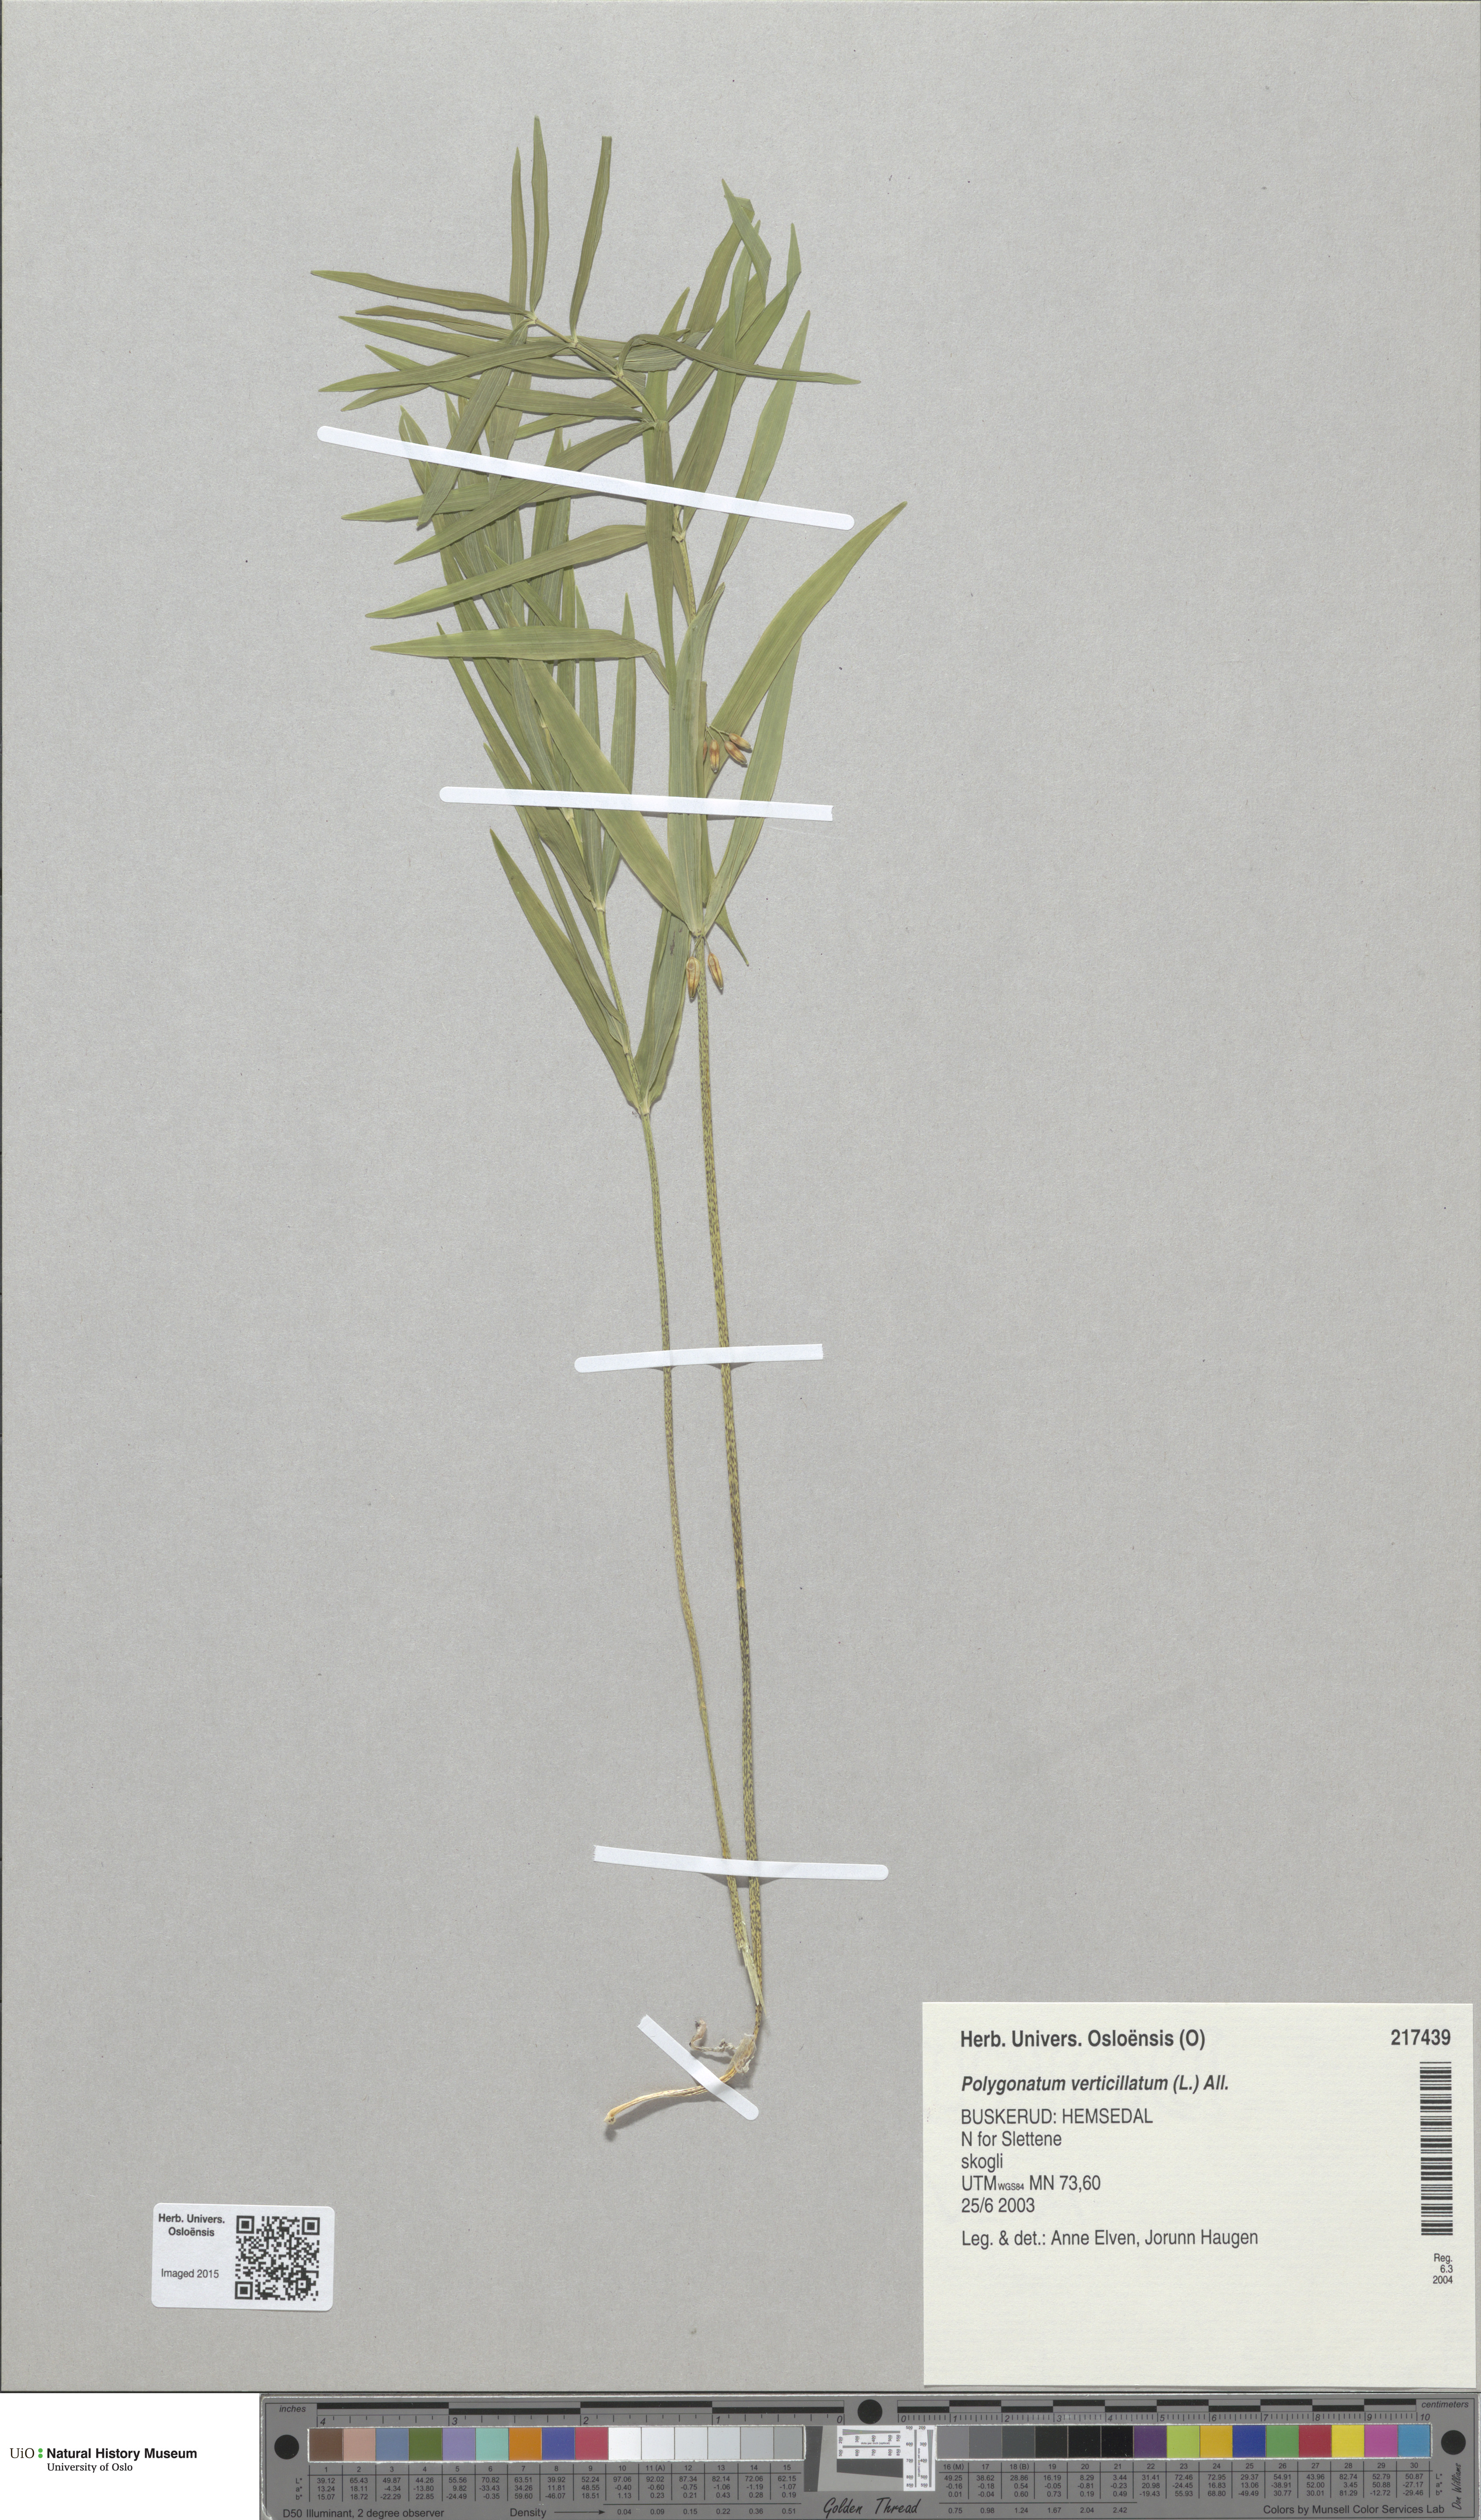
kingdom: Plantae
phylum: Tracheophyta
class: Liliopsida
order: Asparagales
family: Asparagaceae
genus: Polygonatum
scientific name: Polygonatum verticillatum
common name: Whorled solomon's-seal
